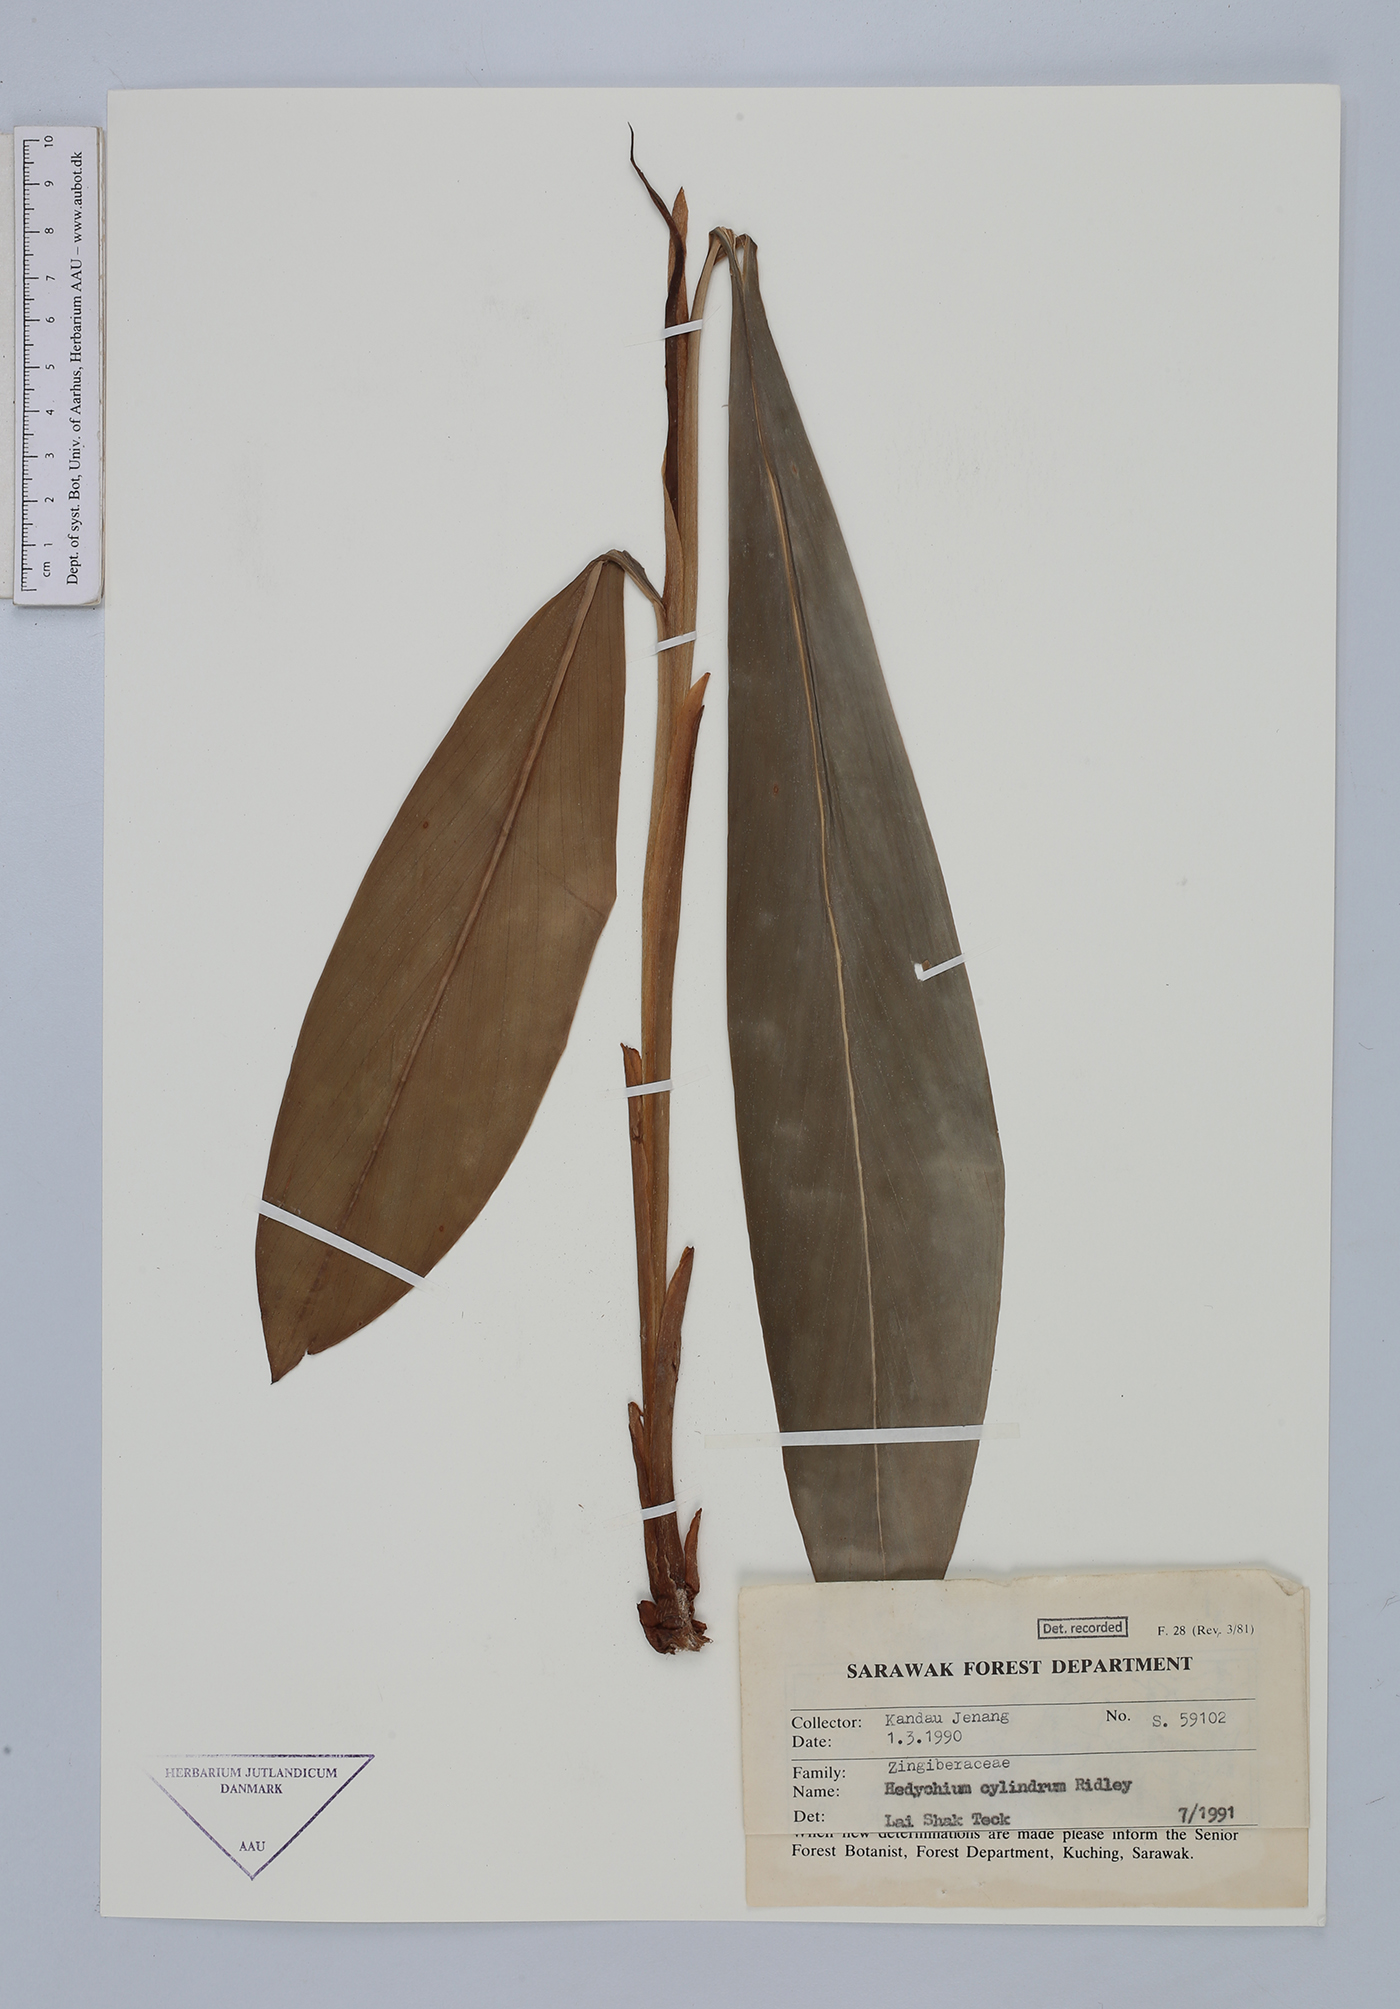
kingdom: Plantae
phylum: Tracheophyta
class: Liliopsida
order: Zingiberales
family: Zingiberaceae
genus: Hedychium
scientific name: Hedychium cylindricum
